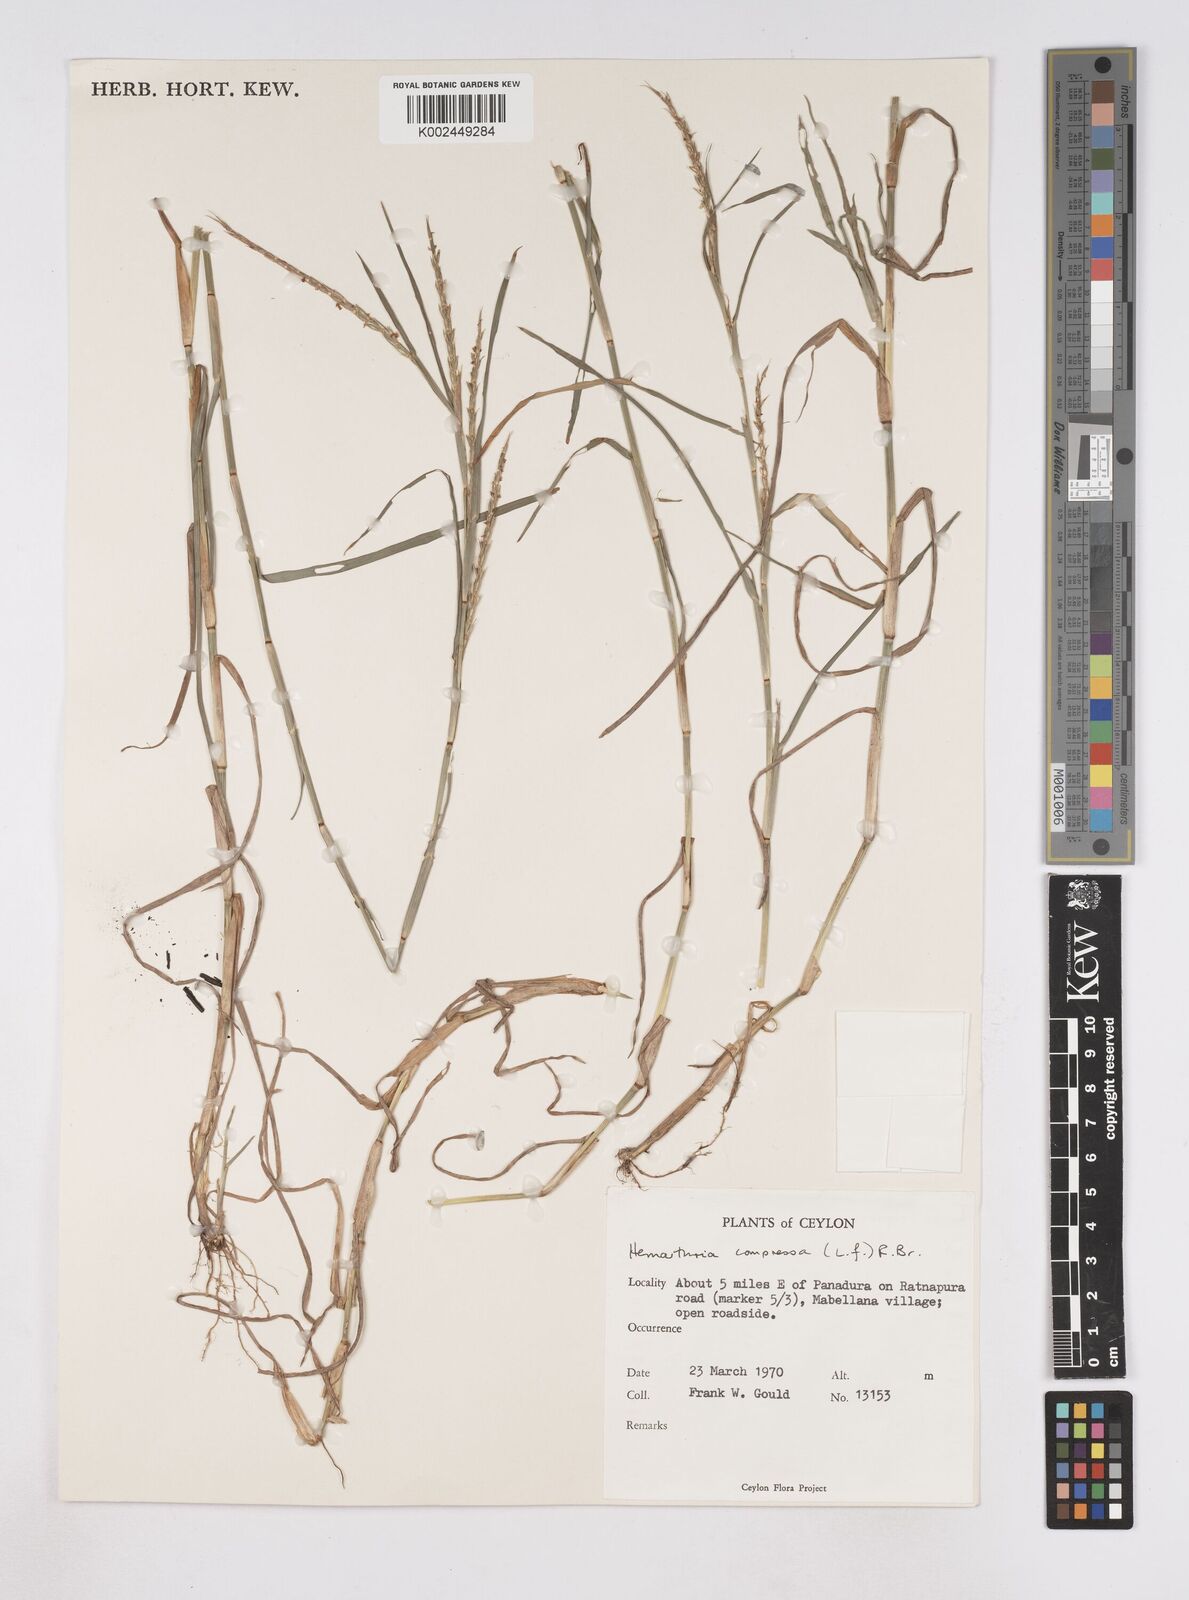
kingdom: Plantae
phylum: Tracheophyta
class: Liliopsida
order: Poales
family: Poaceae
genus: Hemarthria
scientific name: Hemarthria compressa
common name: Whip grass
